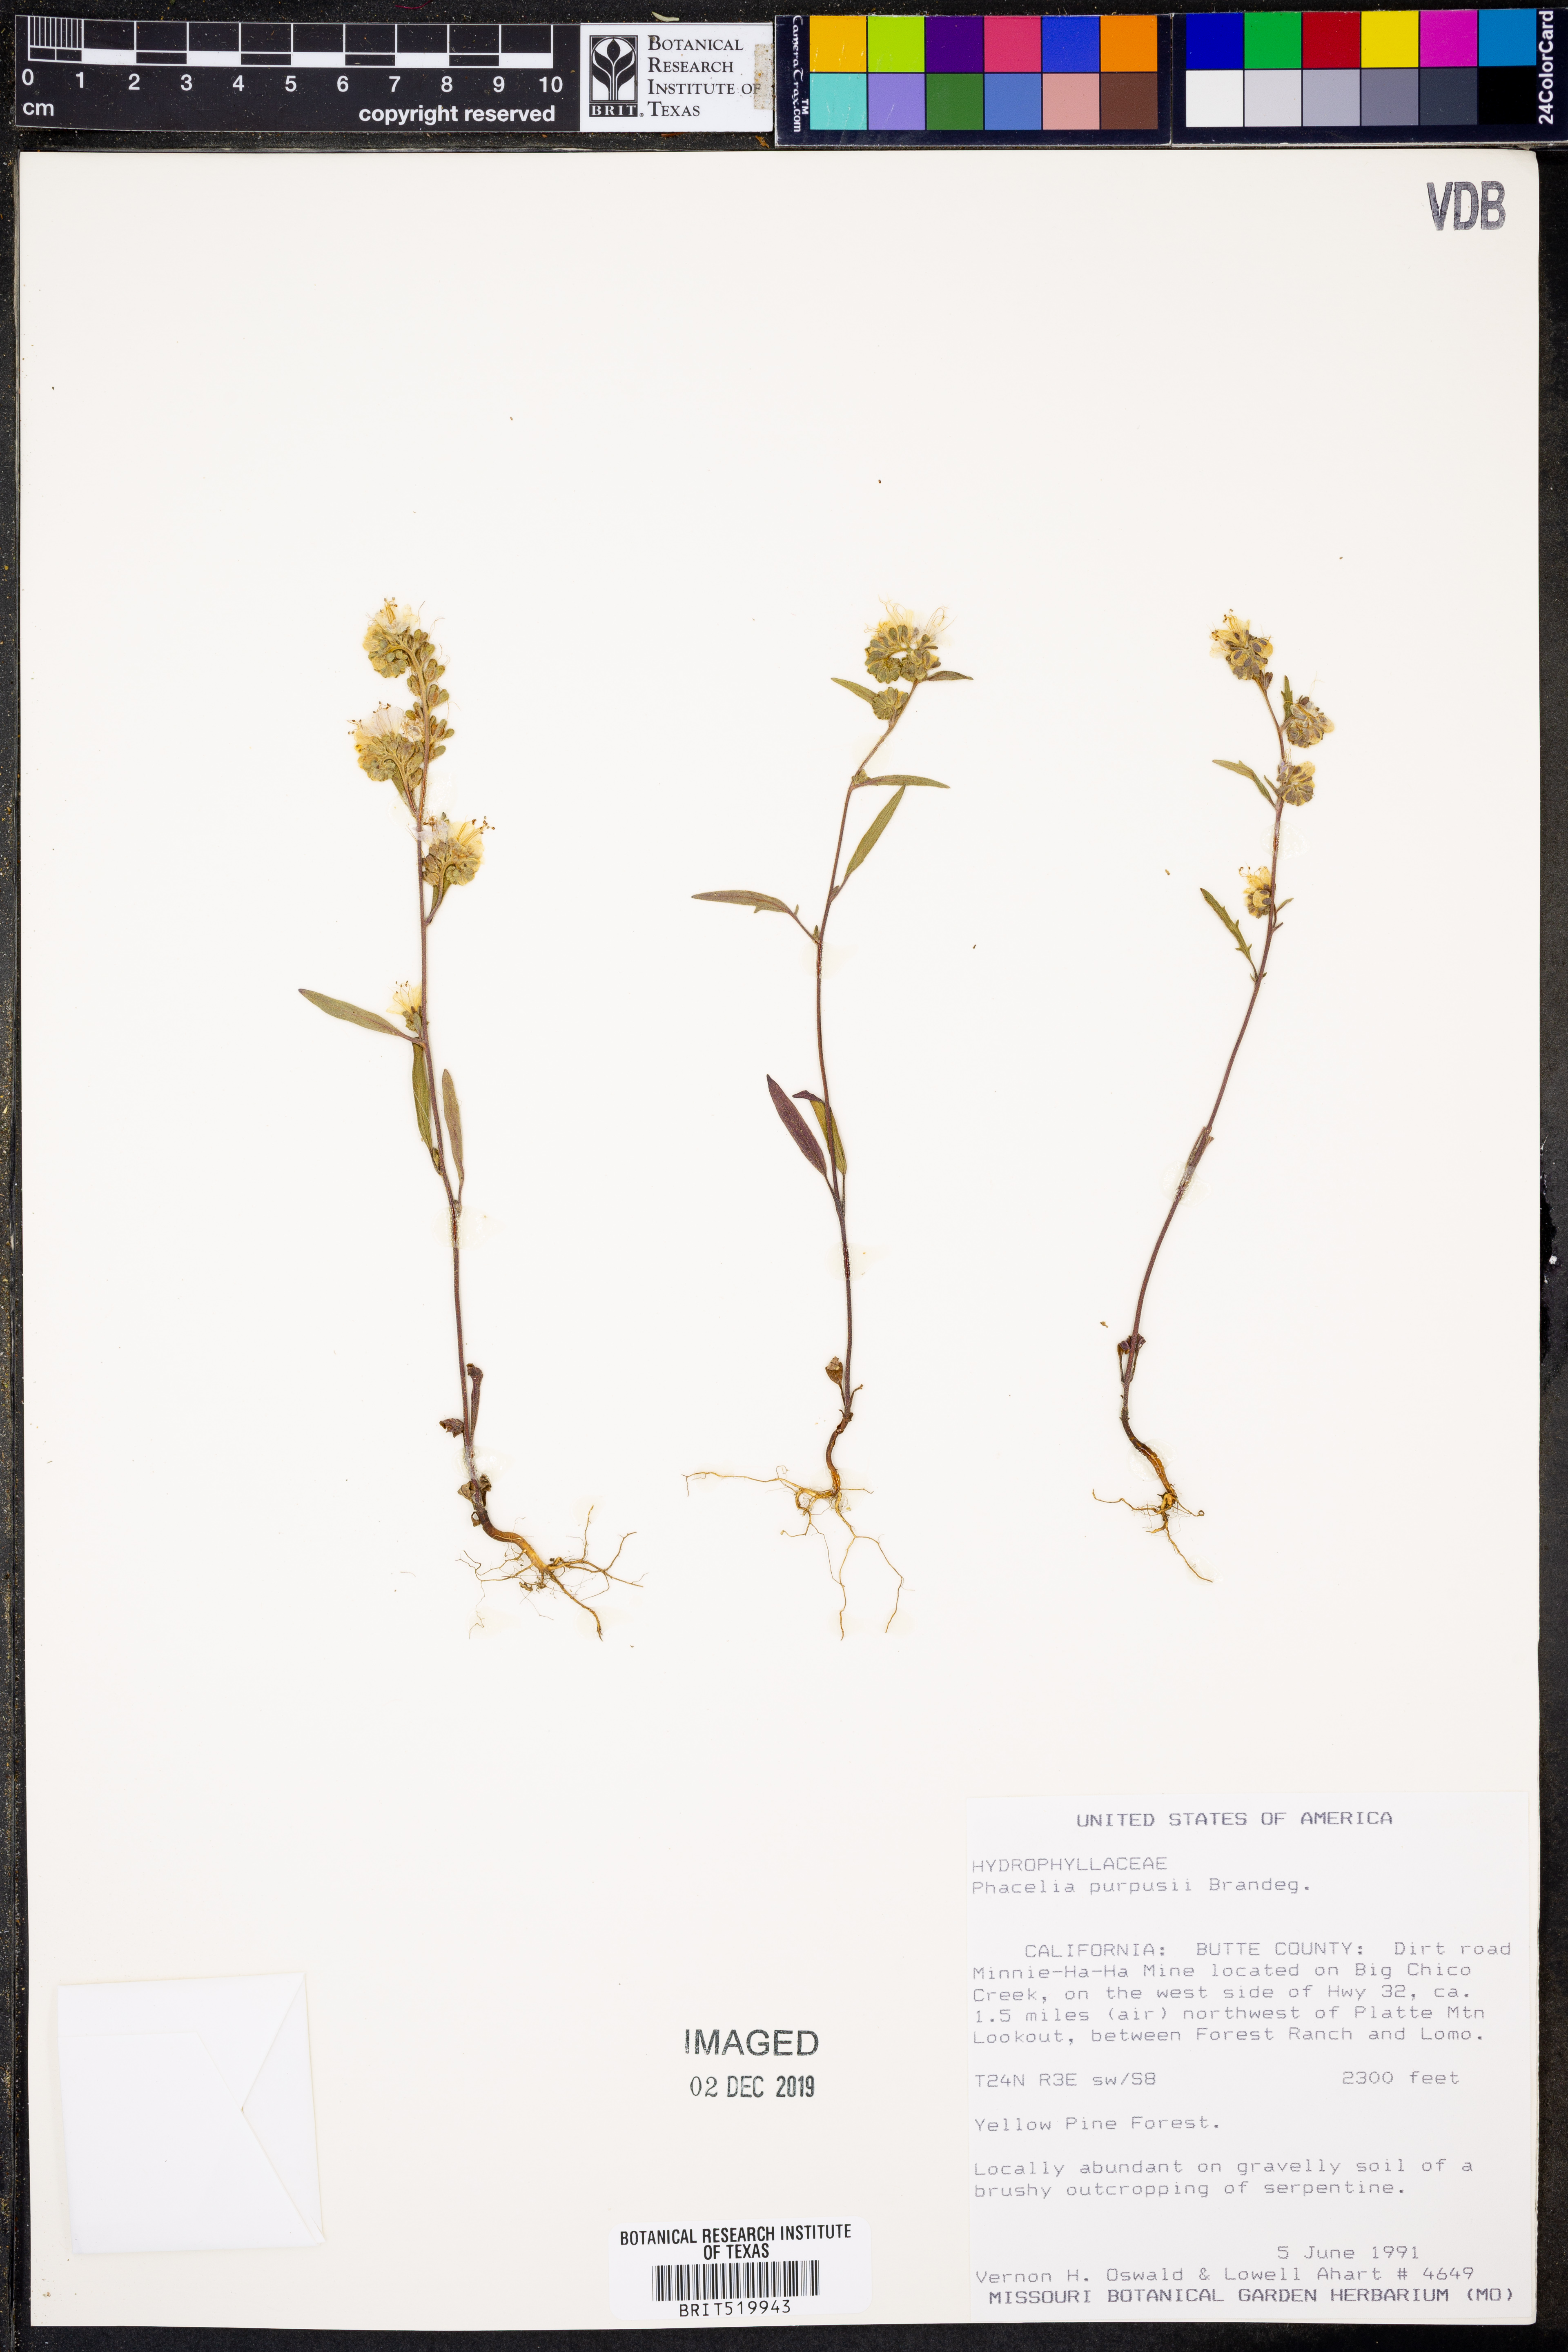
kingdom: Plantae
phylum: Tracheophyta
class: Magnoliopsida
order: Boraginales
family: Hydrophyllaceae
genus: Phacelia
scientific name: Phacelia purpusii
